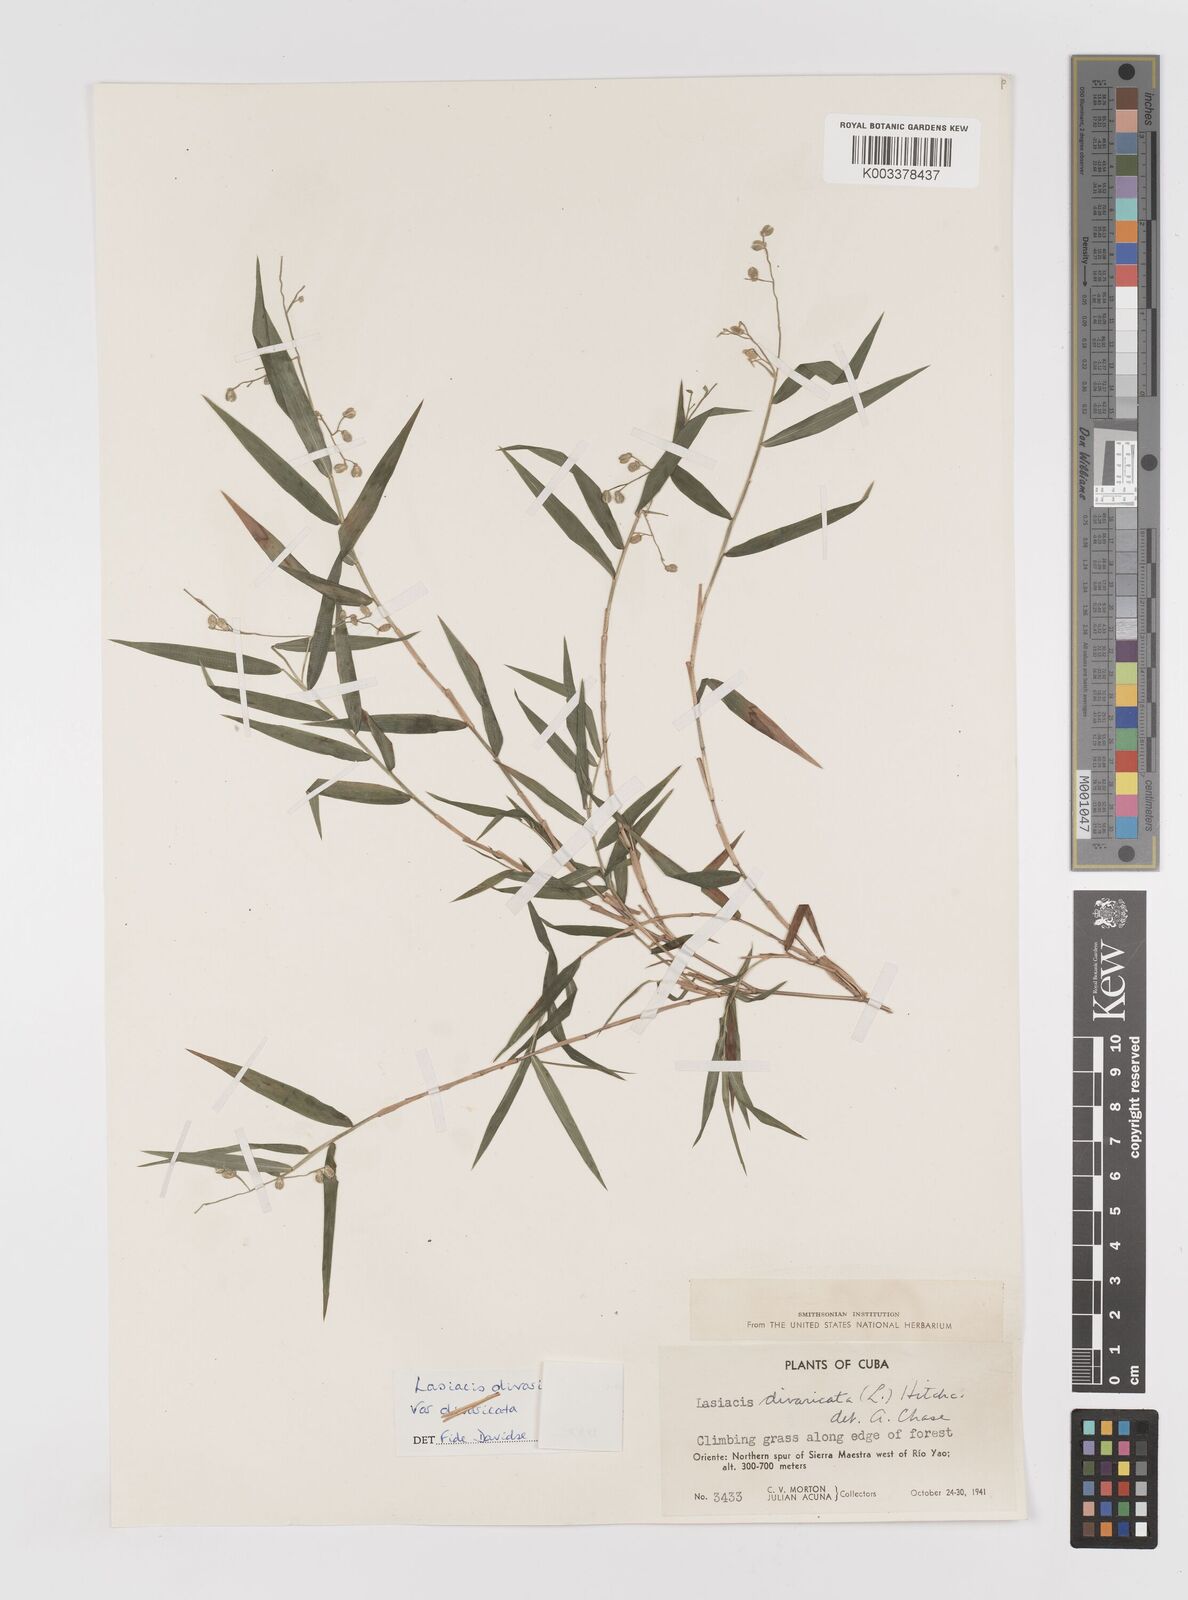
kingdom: Plantae
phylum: Tracheophyta
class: Liliopsida
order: Poales
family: Poaceae
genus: Lasiacis
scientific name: Lasiacis divaricata
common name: Smallcane
